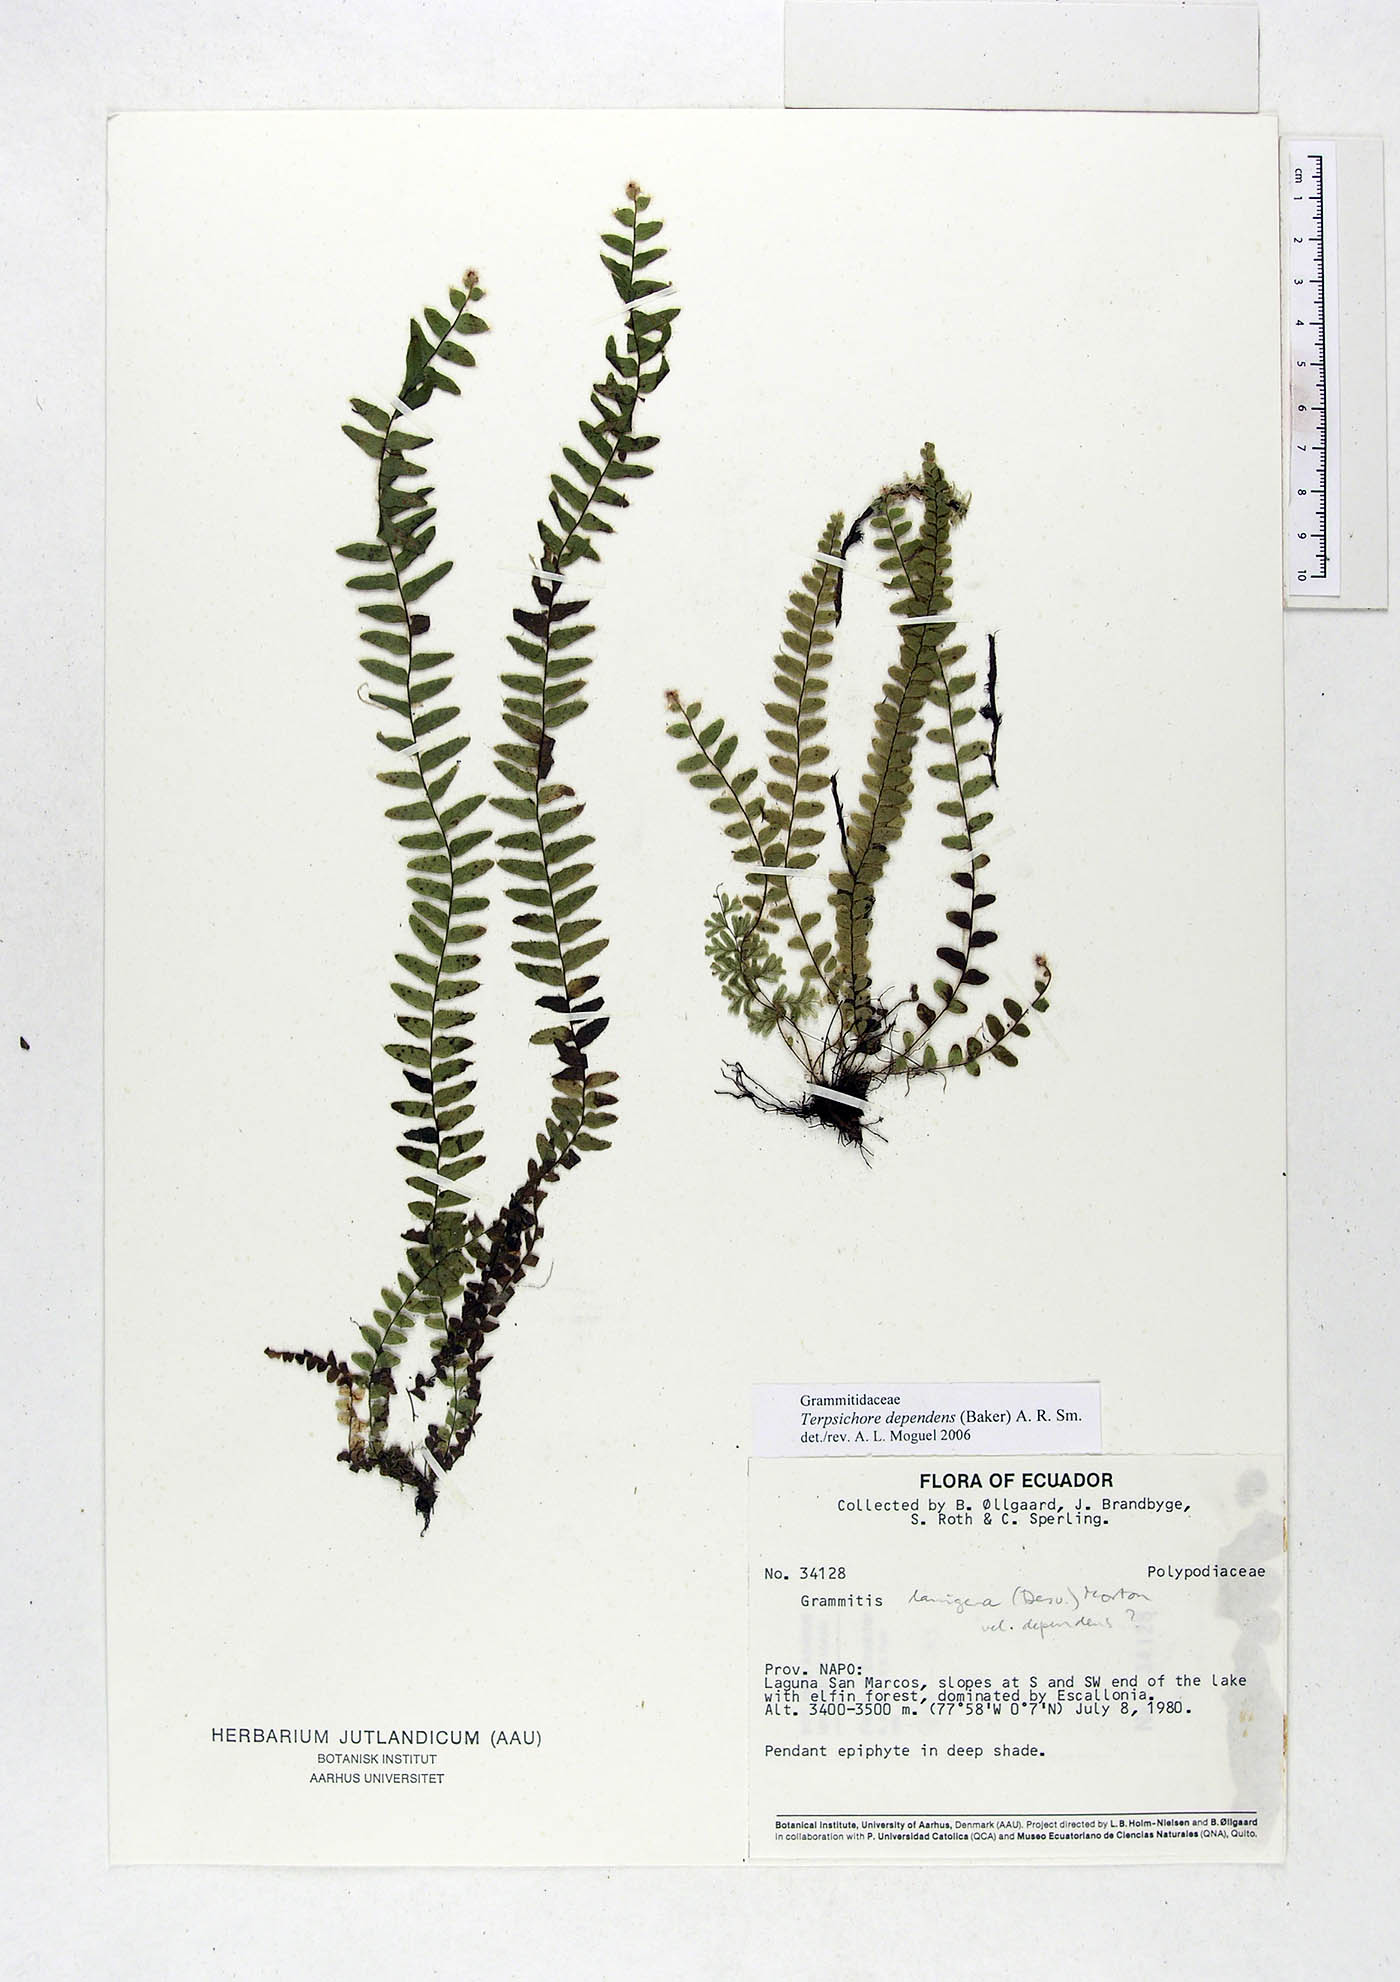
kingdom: Plantae
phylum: Tracheophyta
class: Polypodiopsida
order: Polypodiales
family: Polypodiaceae
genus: Alansmia
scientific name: Alansmia dependens
